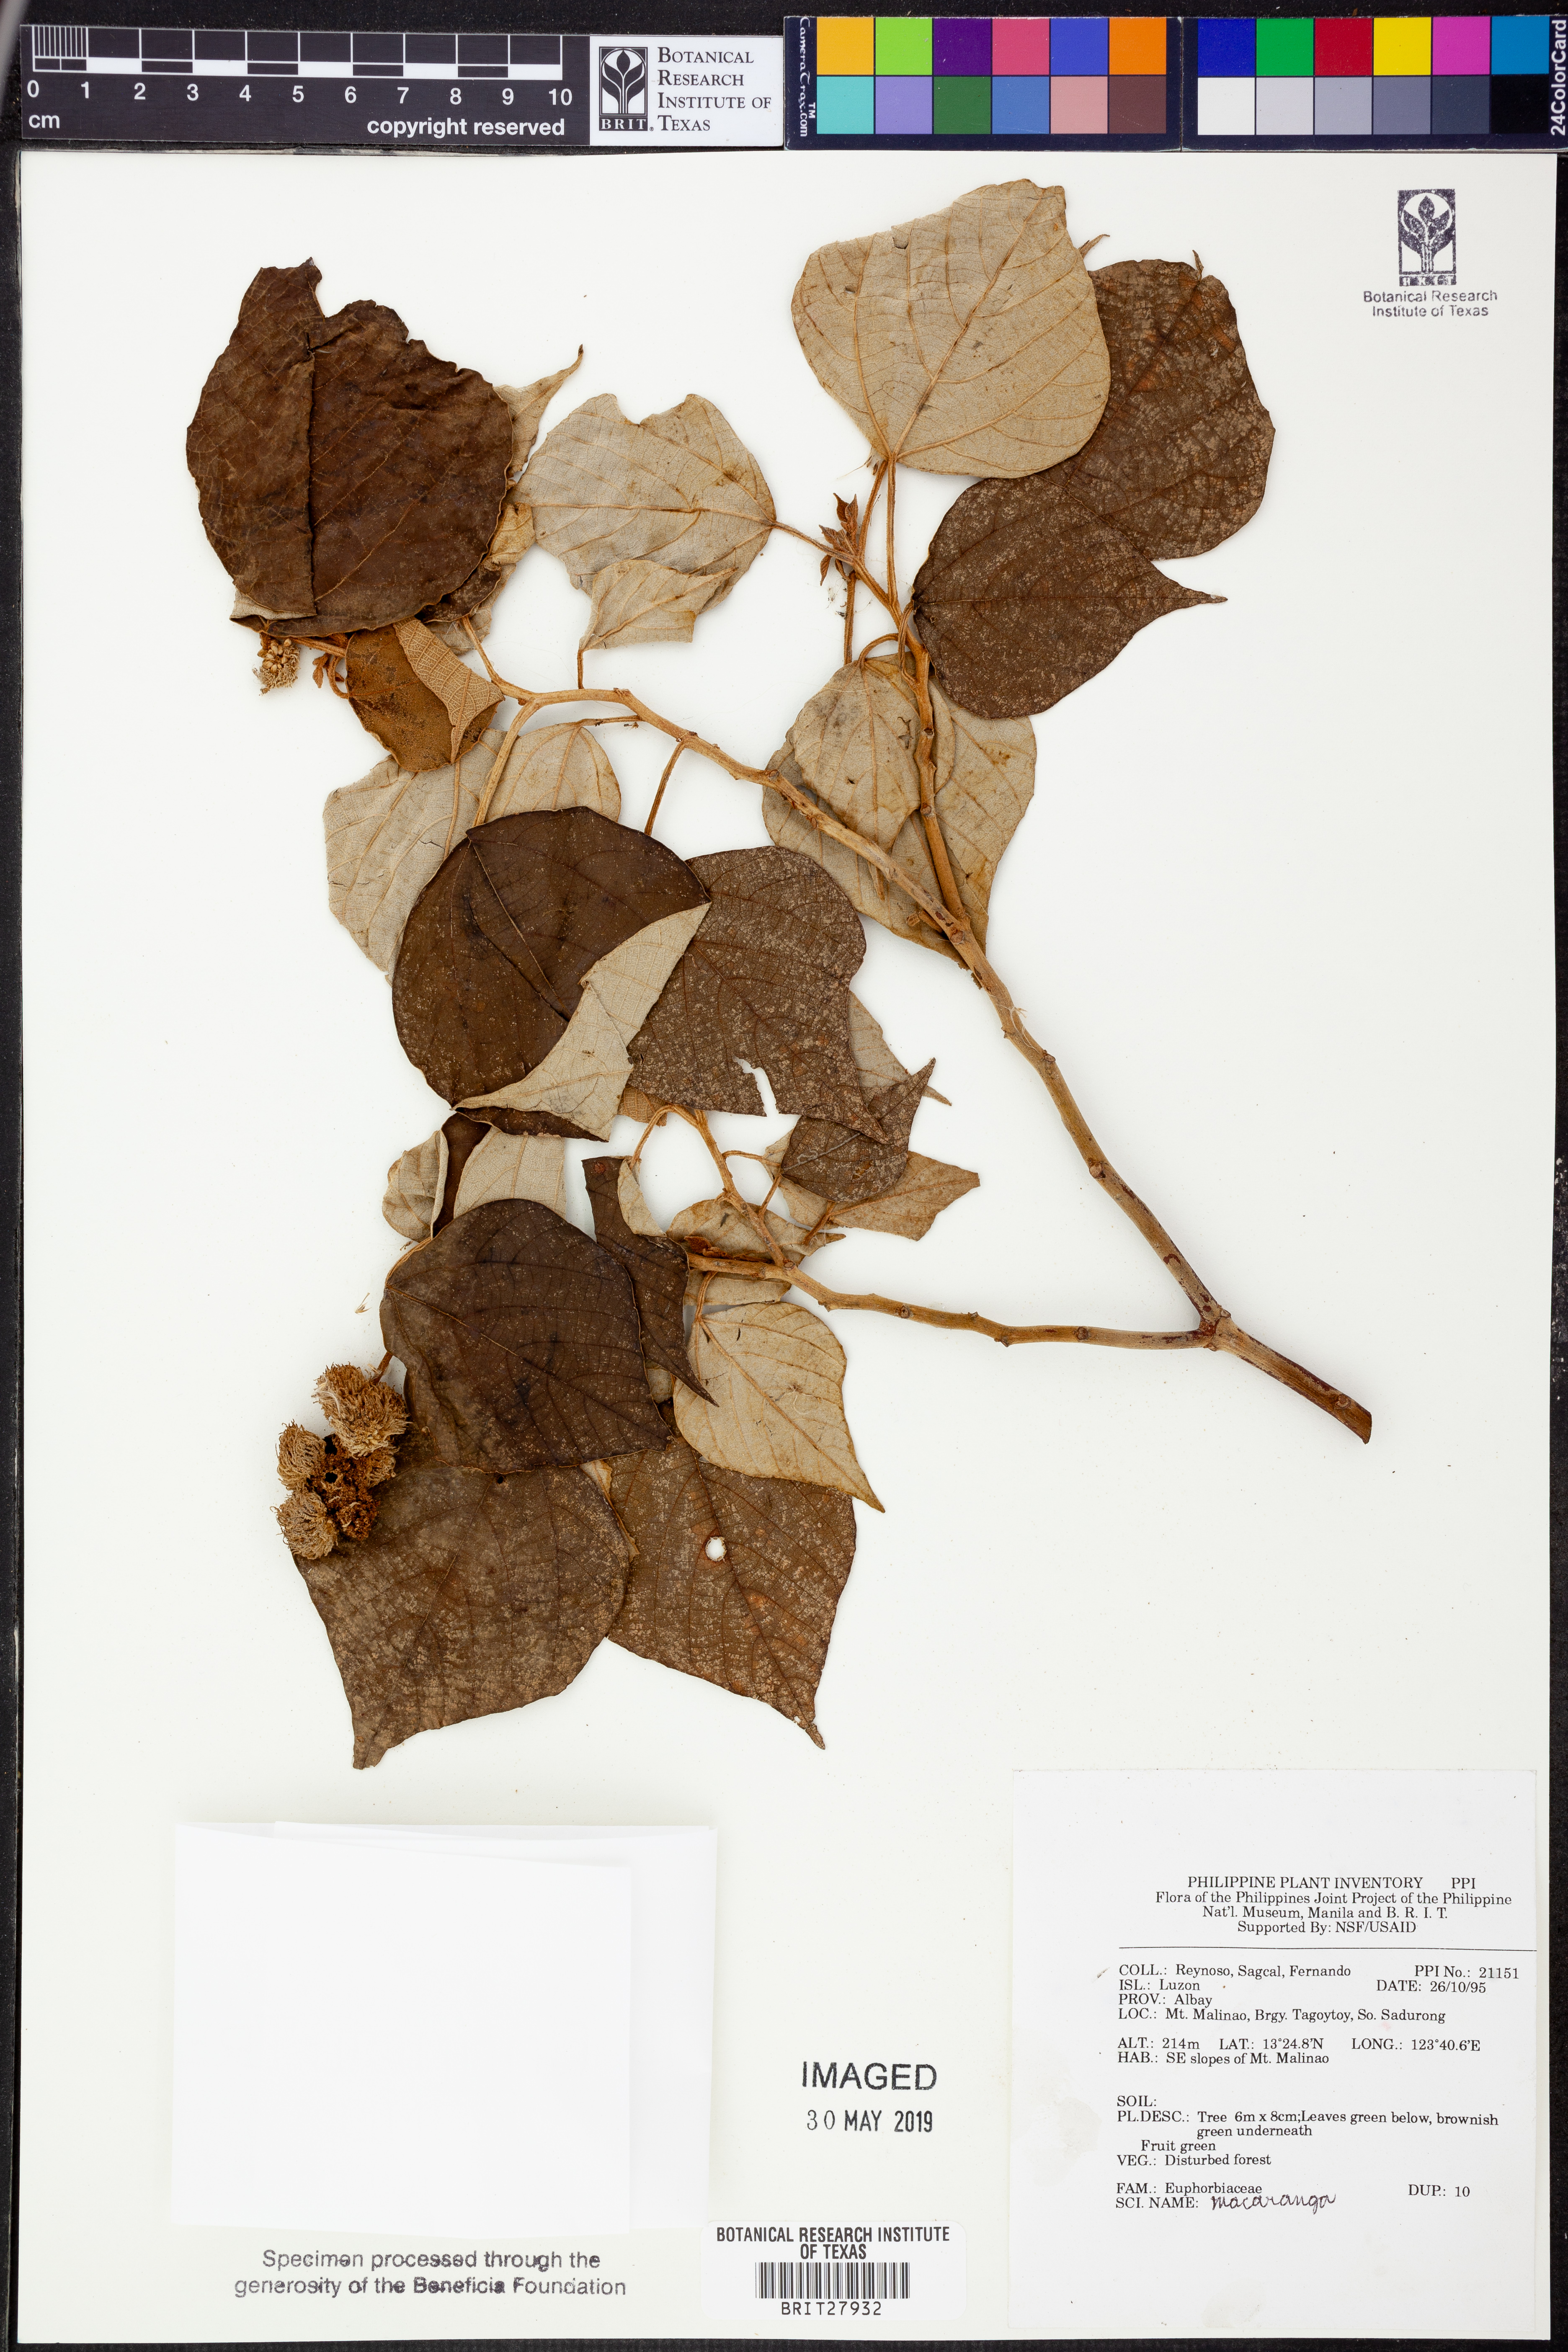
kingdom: Plantae
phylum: Tracheophyta
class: Magnoliopsida
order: Malpighiales
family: Euphorbiaceae
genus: Macaranga
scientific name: Macaranga
